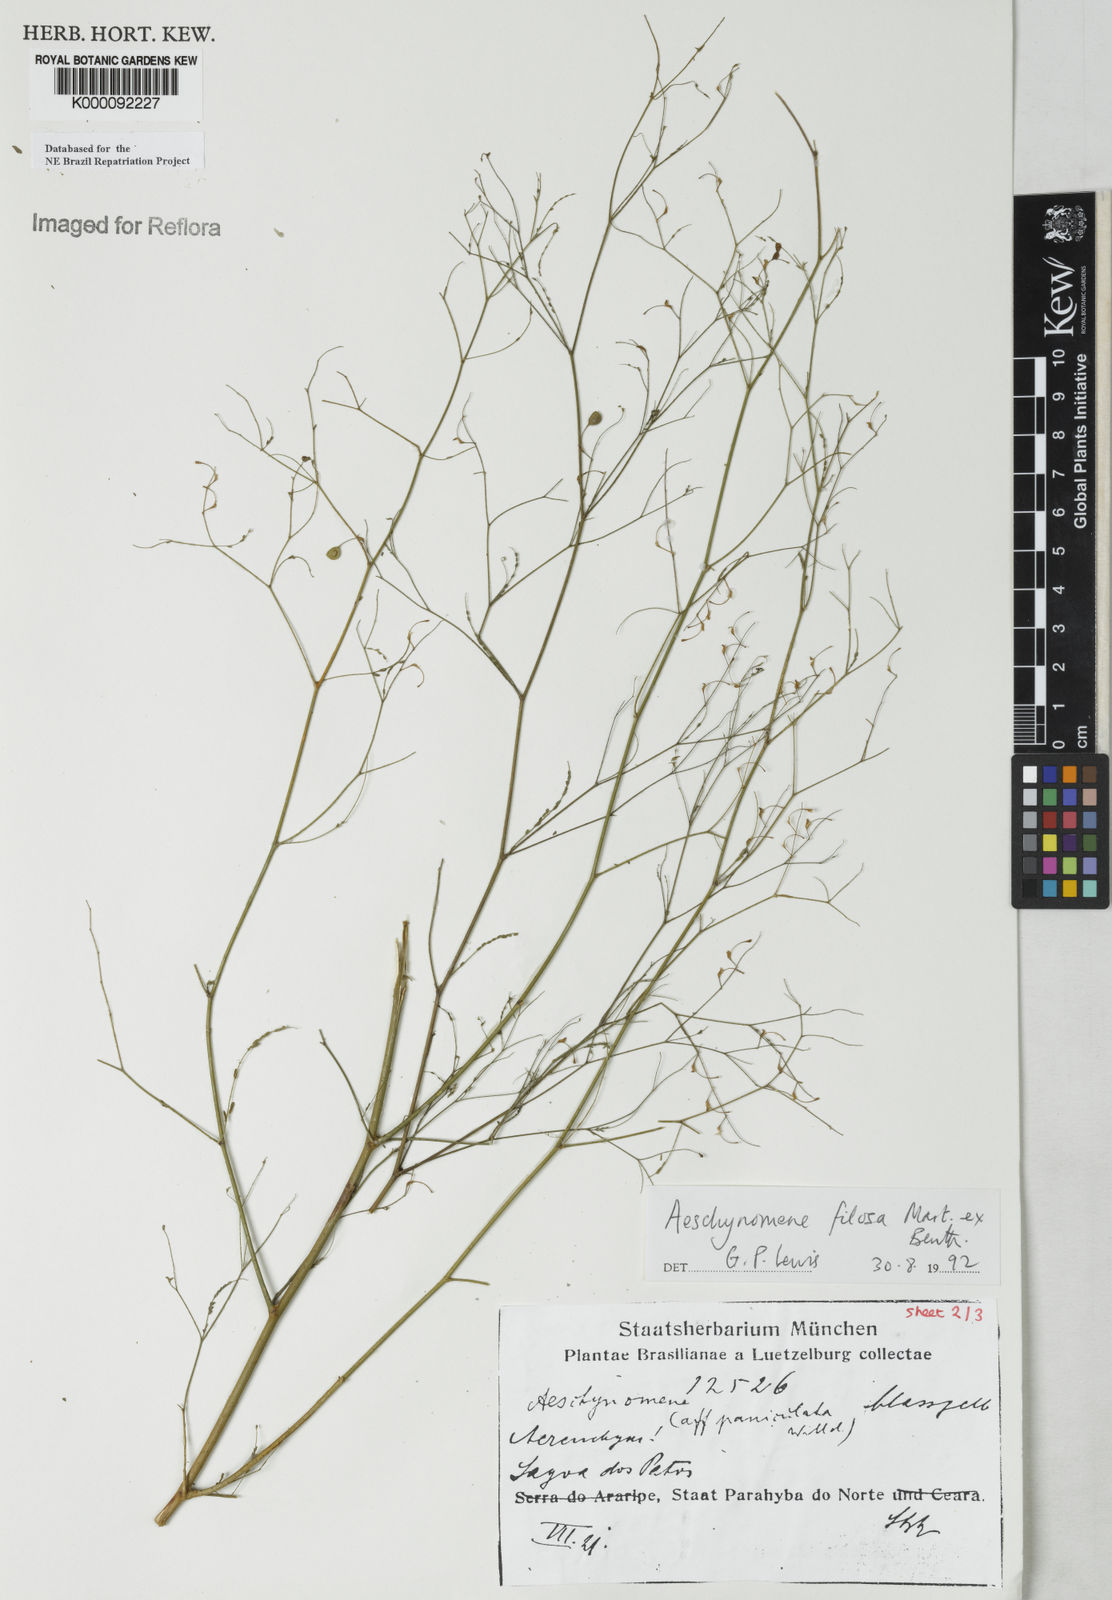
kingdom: Plantae
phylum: Tracheophyta
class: Magnoliopsida
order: Fabales
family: Fabaceae
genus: Aeschynomene
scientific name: Aeschynomene filosa
